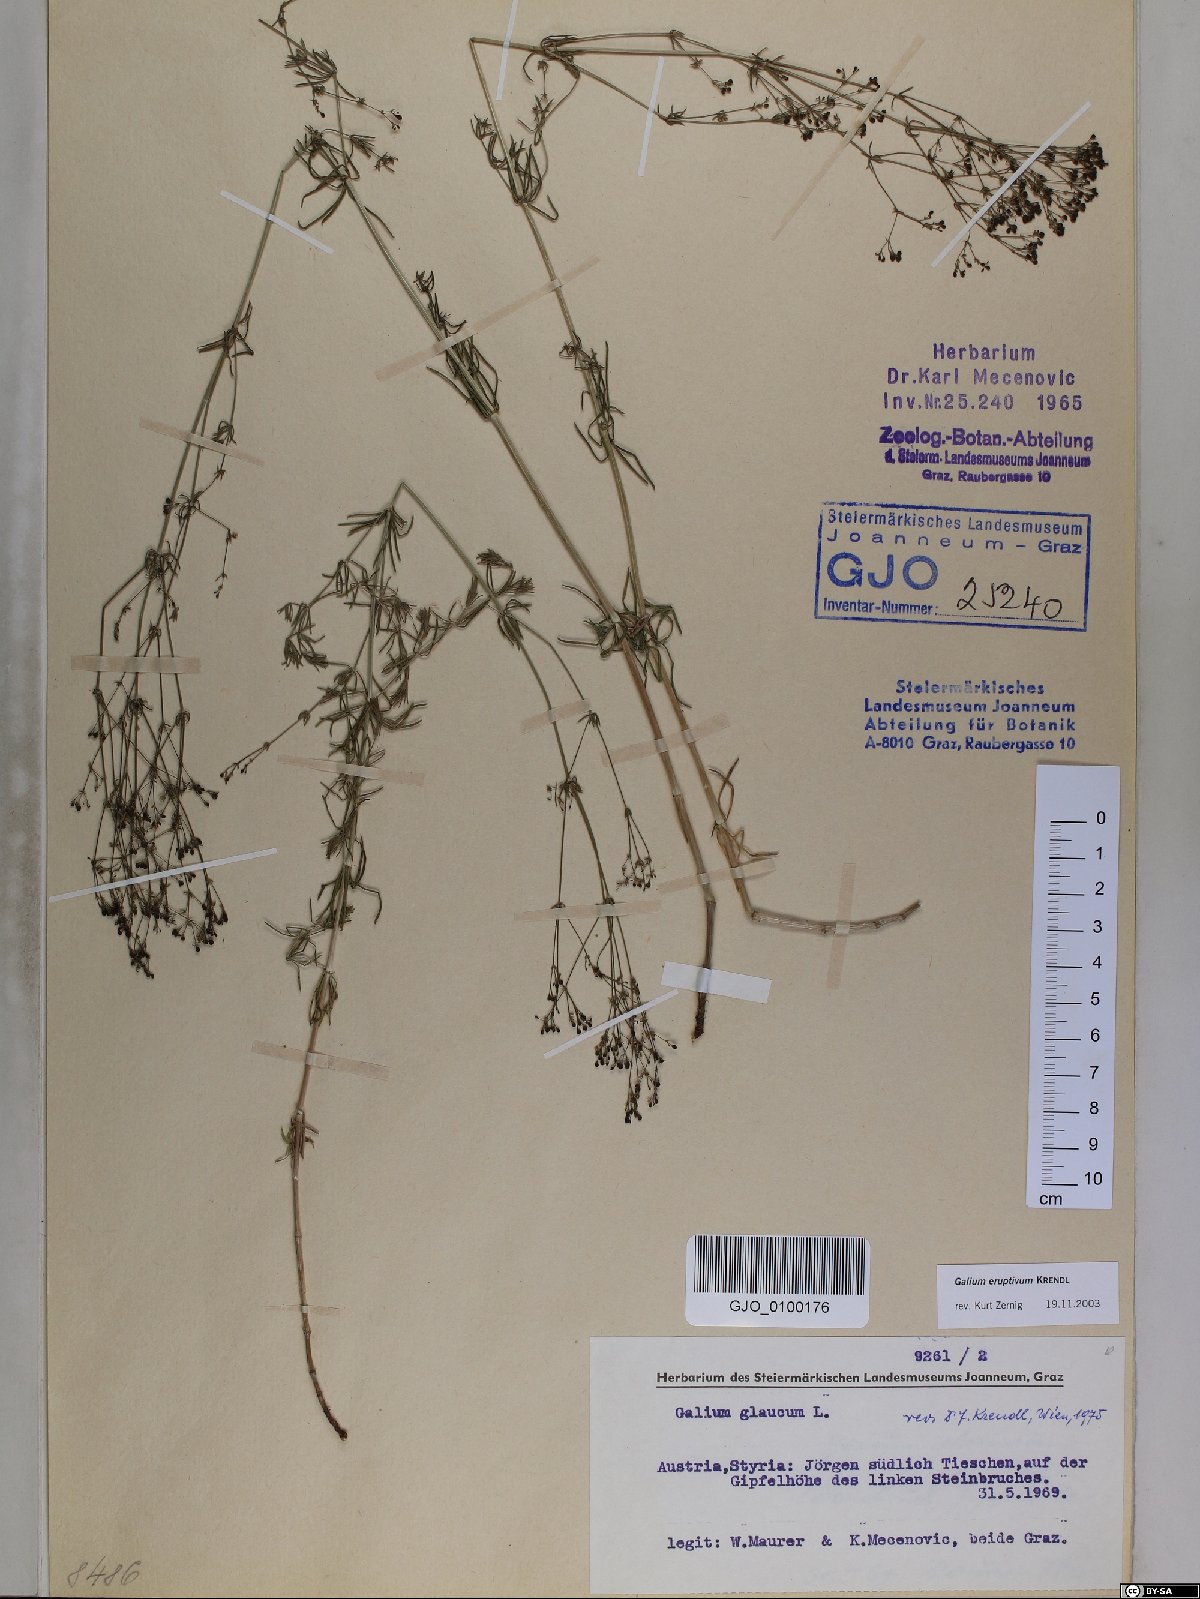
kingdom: Plantae
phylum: Tracheophyta
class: Magnoliopsida
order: Gentianales
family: Rubiaceae
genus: Galium
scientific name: Galium eruptivum
